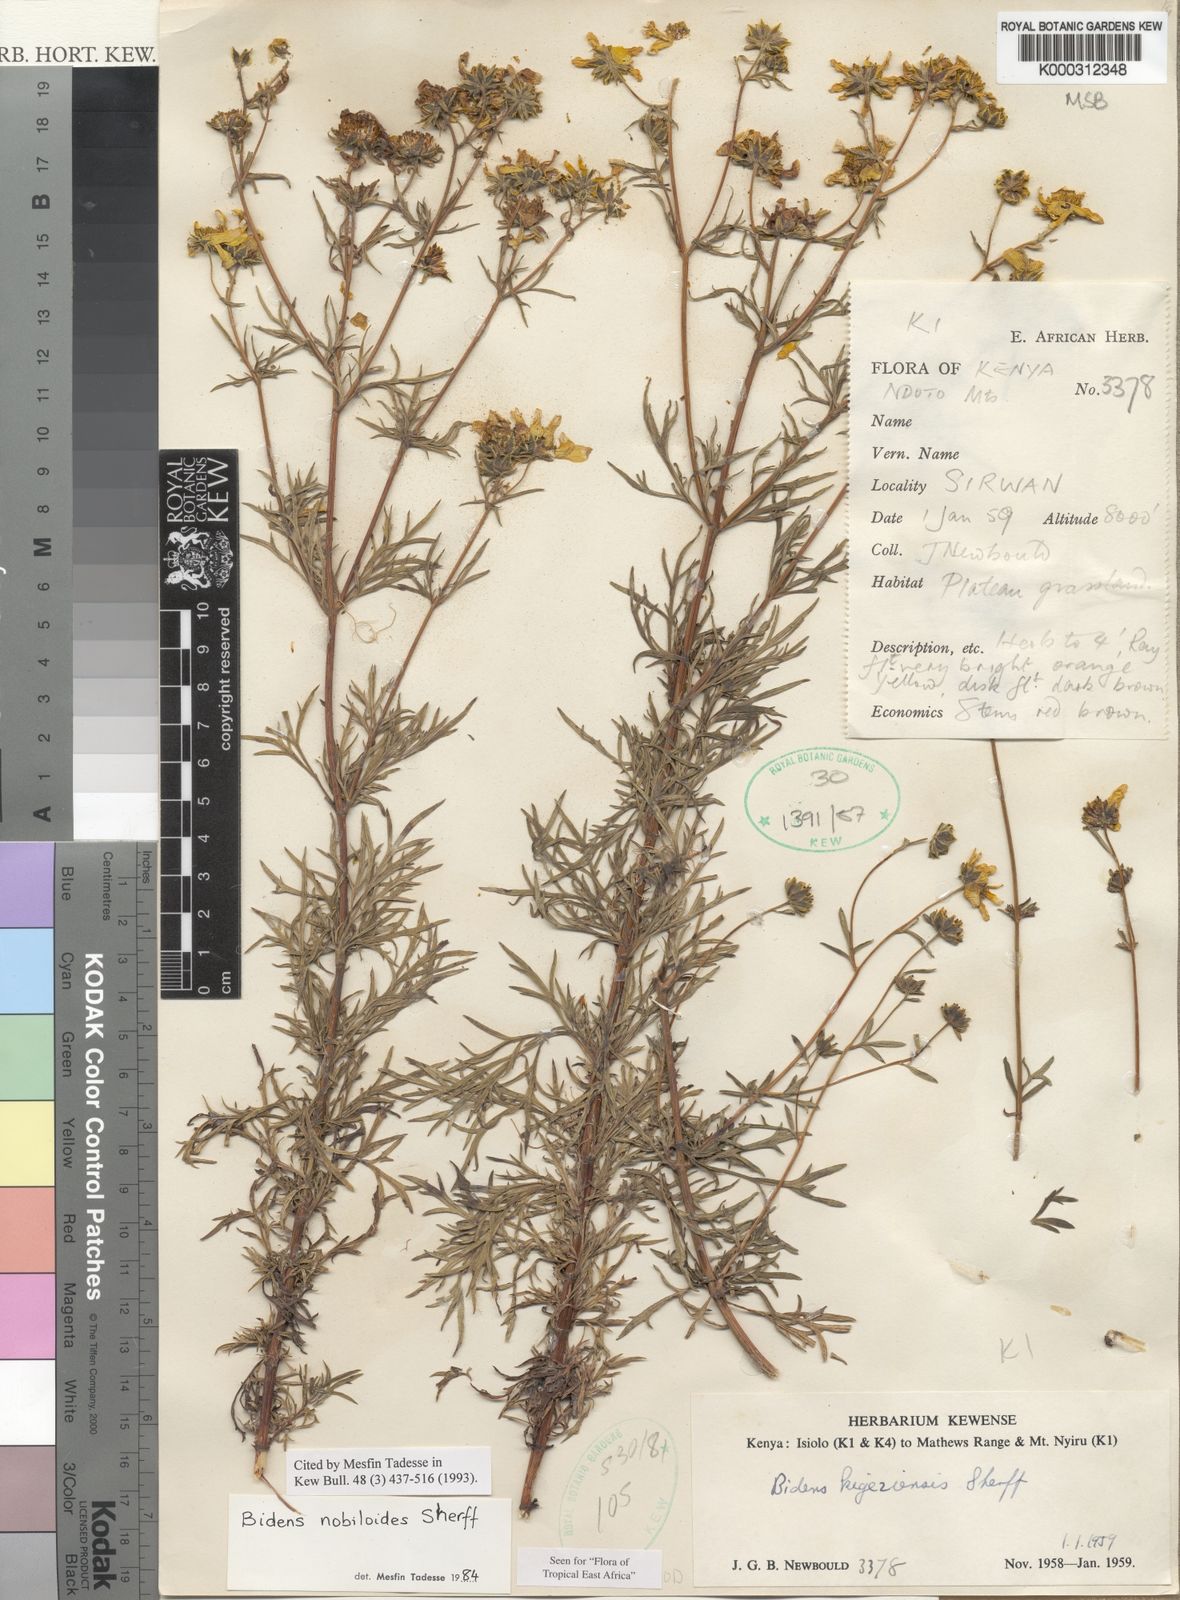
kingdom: Plantae
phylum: Tracheophyta
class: Magnoliopsida
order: Asterales
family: Asteraceae
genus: Bidens
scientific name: Bidens
